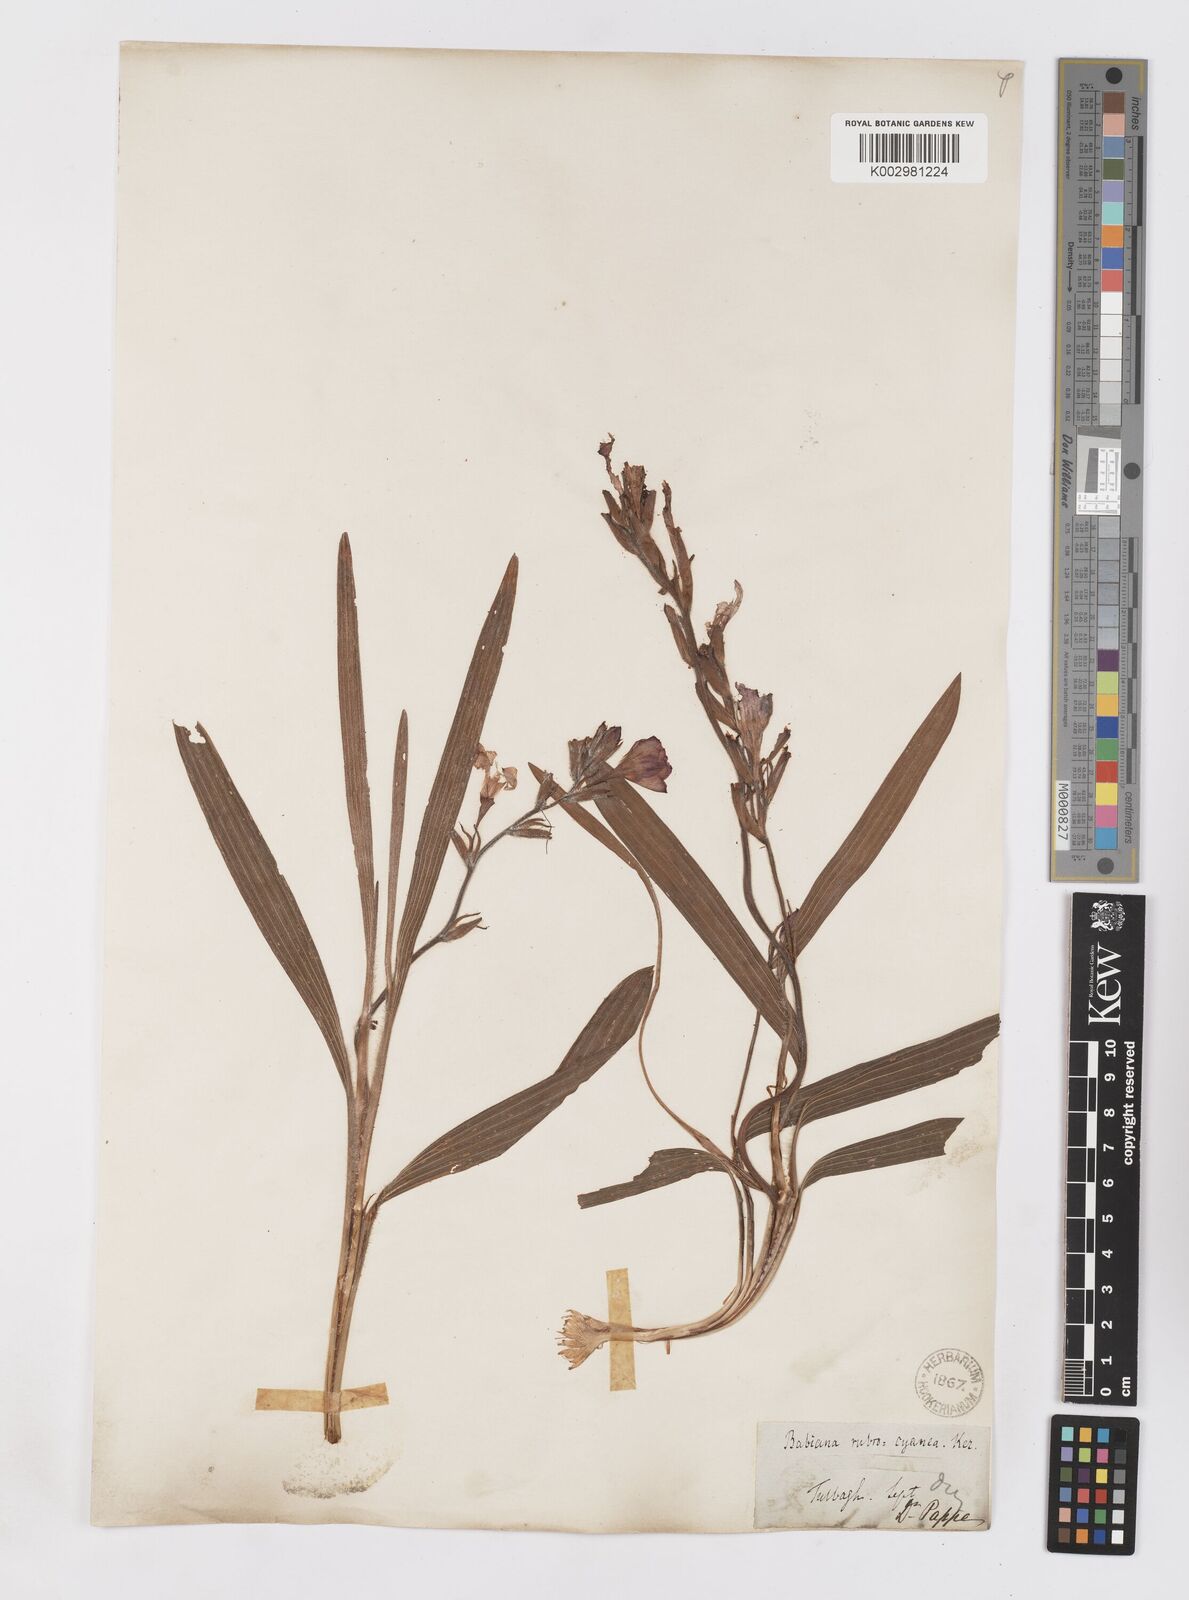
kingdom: Plantae
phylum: Tracheophyta
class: Liliopsida
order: Asparagales
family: Iridaceae
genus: Babiana
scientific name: Babiana rubrocyanea
